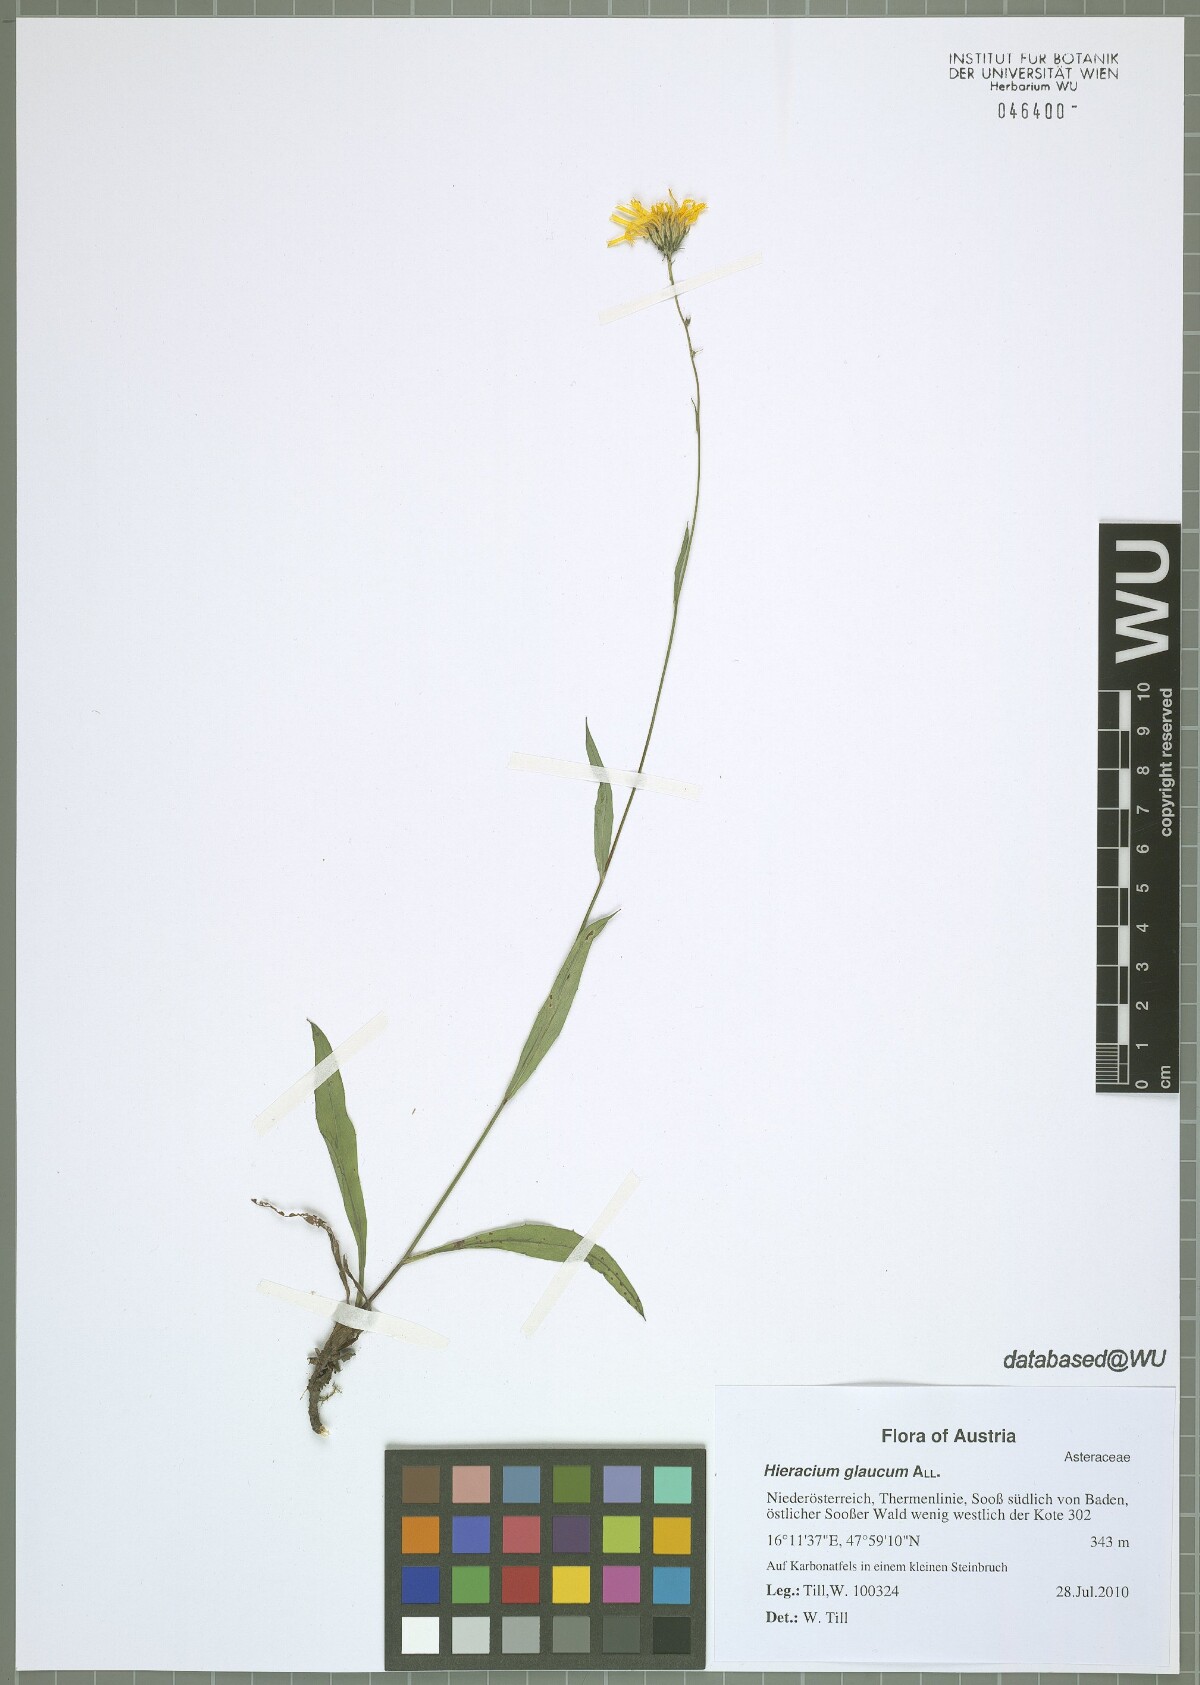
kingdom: Plantae
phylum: Tracheophyta
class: Magnoliopsida
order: Asterales
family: Asteraceae
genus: Hieracium
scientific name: Hieracium saxatile
